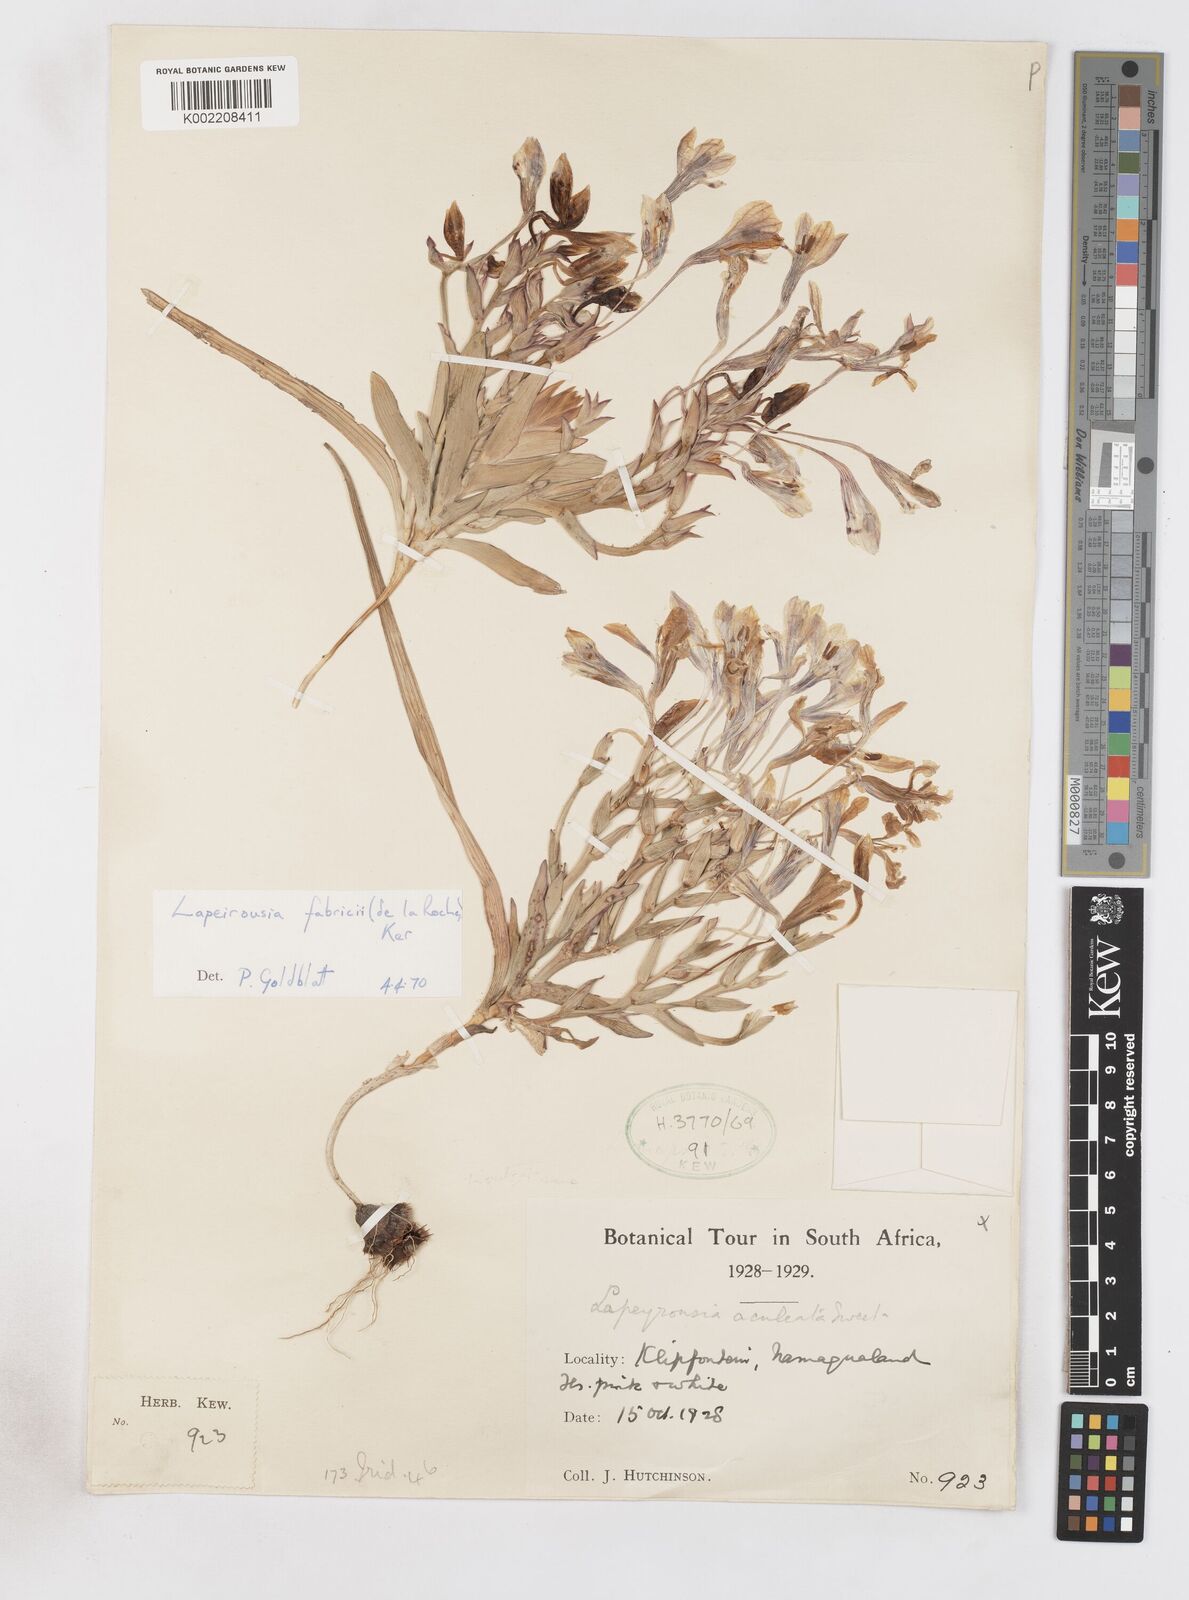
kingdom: Plantae
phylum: Tracheophyta
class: Liliopsida
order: Asparagales
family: Iridaceae
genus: Lapeirousia
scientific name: Lapeirousia fabricii
